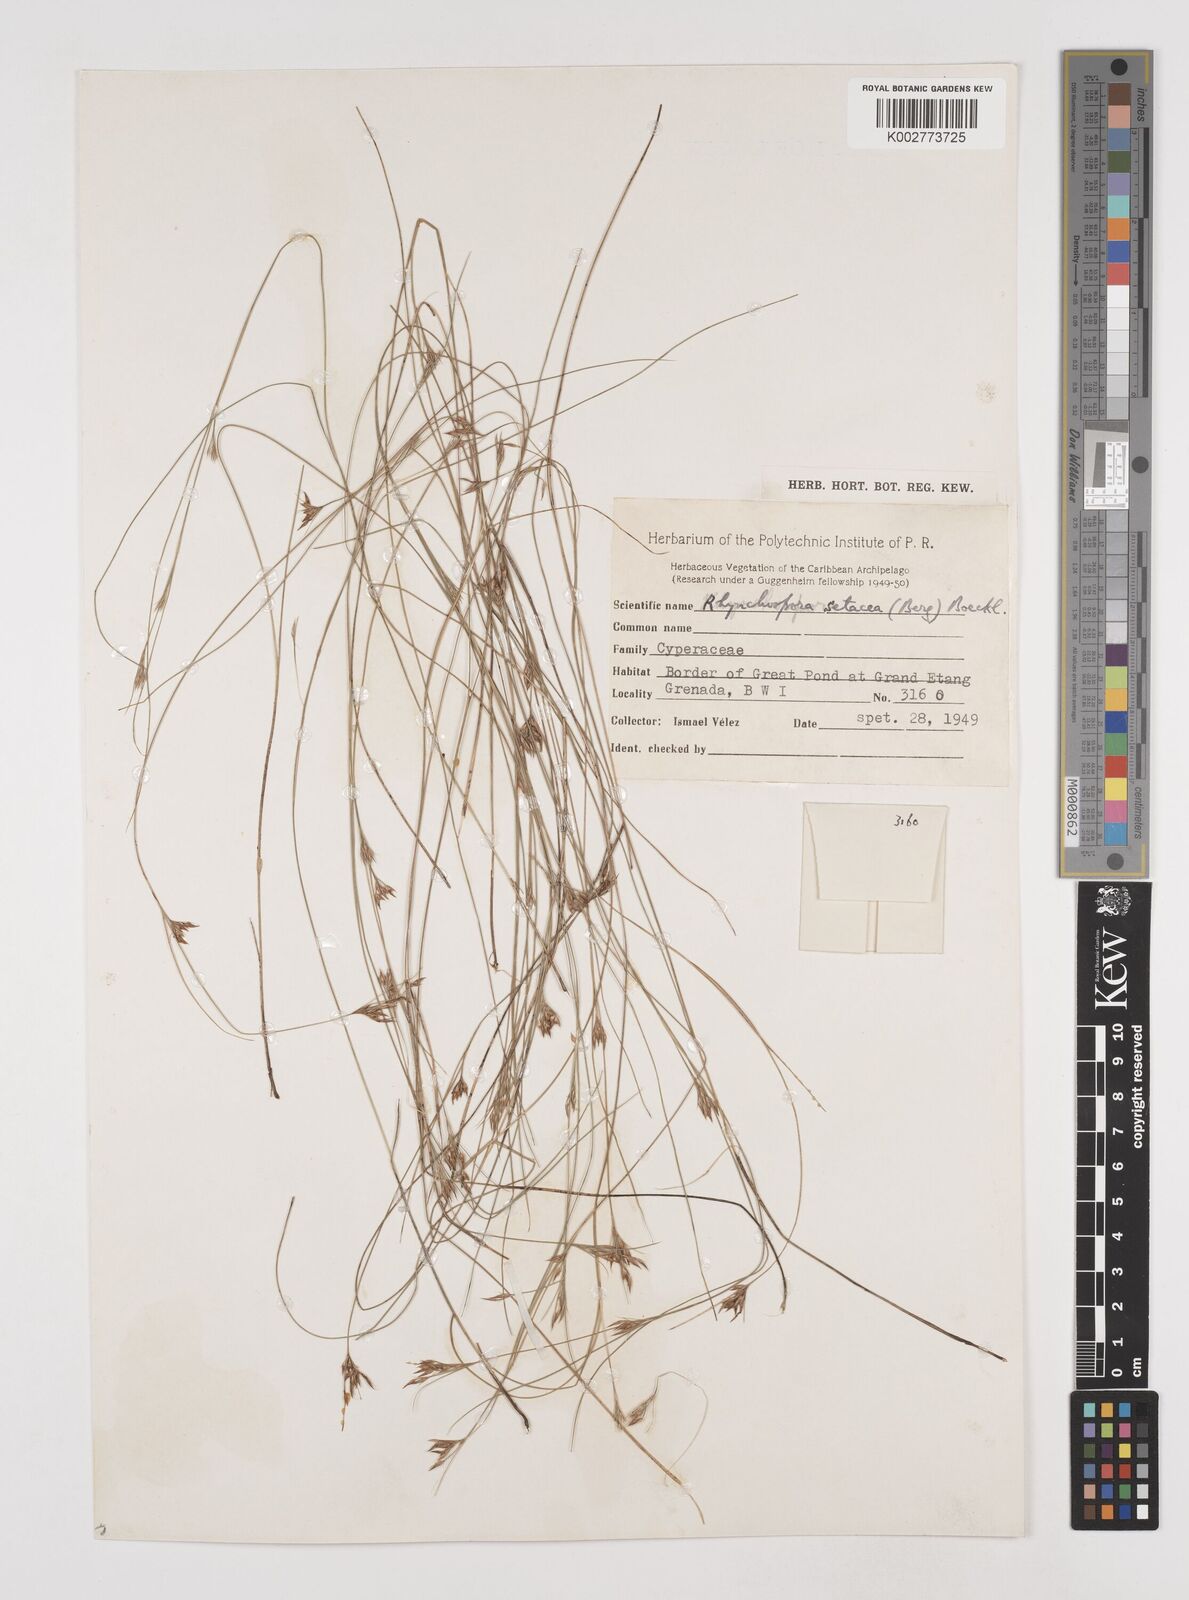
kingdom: Plantae
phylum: Tracheophyta
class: Liliopsida
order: Poales
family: Cyperaceae
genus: Rhynchospora
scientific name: Rhynchospora tenuis
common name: Quill beaksedge
